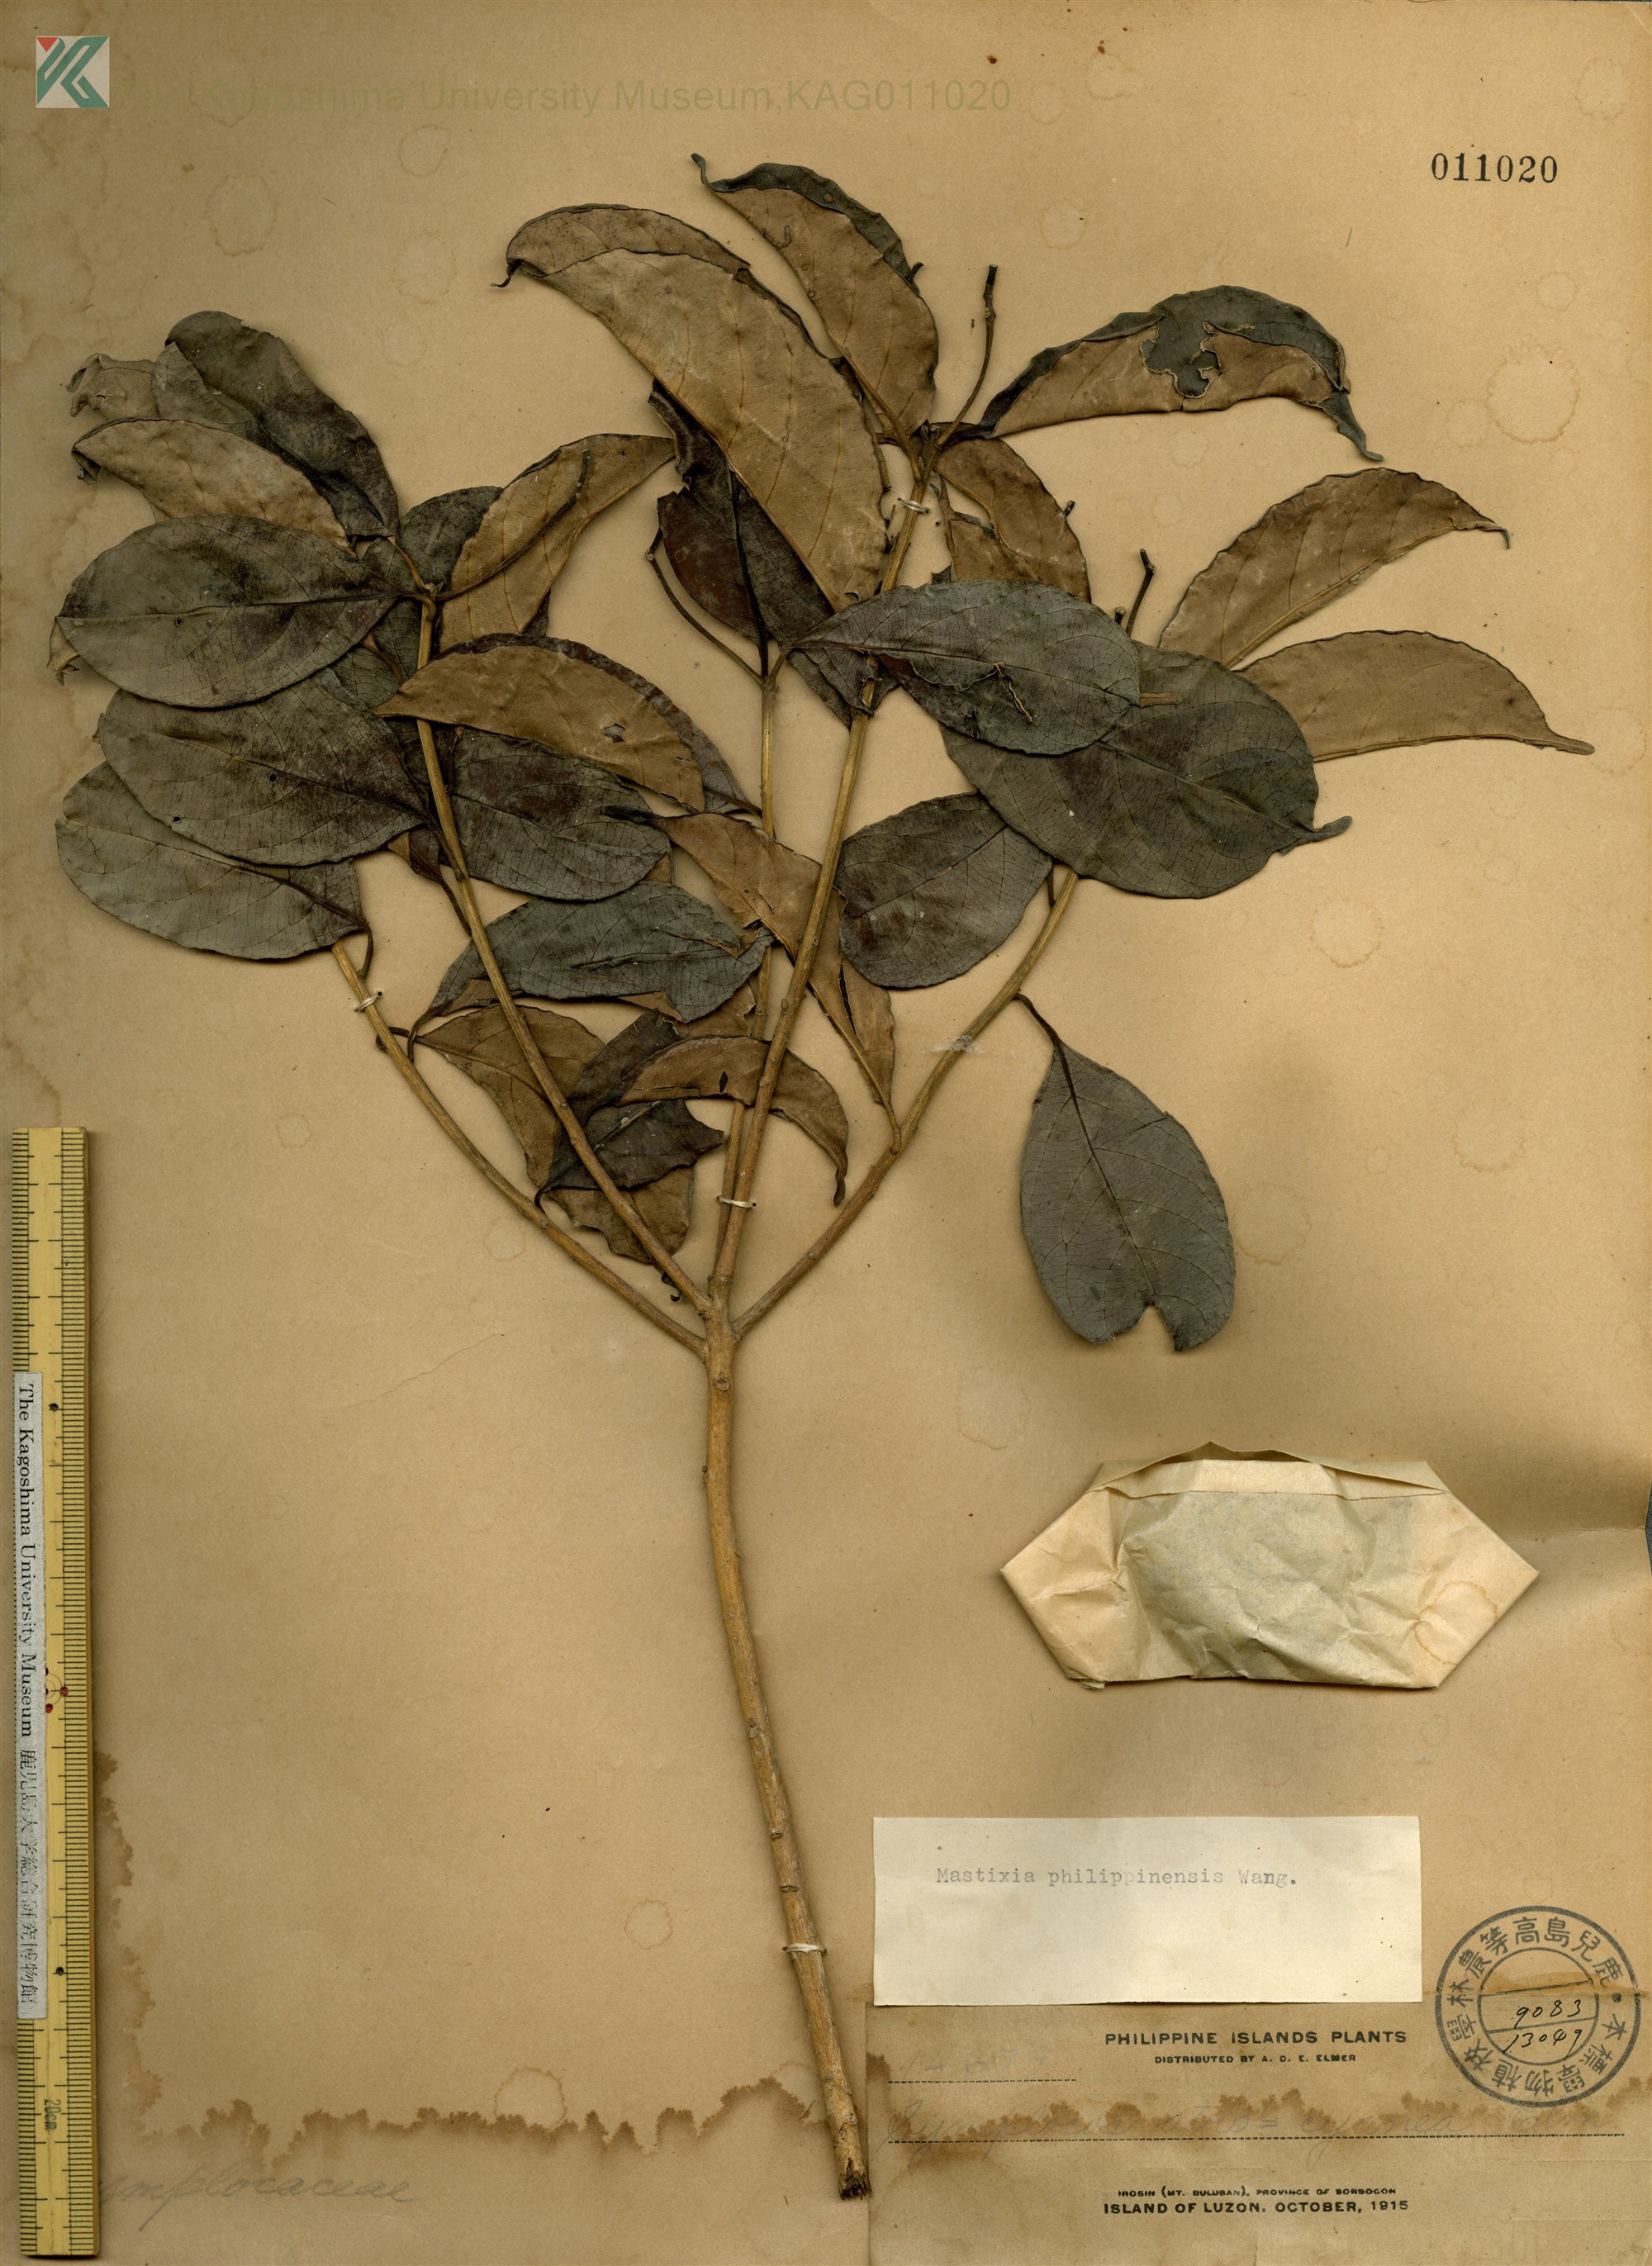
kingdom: Plantae
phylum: Tracheophyta
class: Magnoliopsida
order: Cornales
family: Nyssaceae
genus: Mastixia
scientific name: Mastixia pentandra
